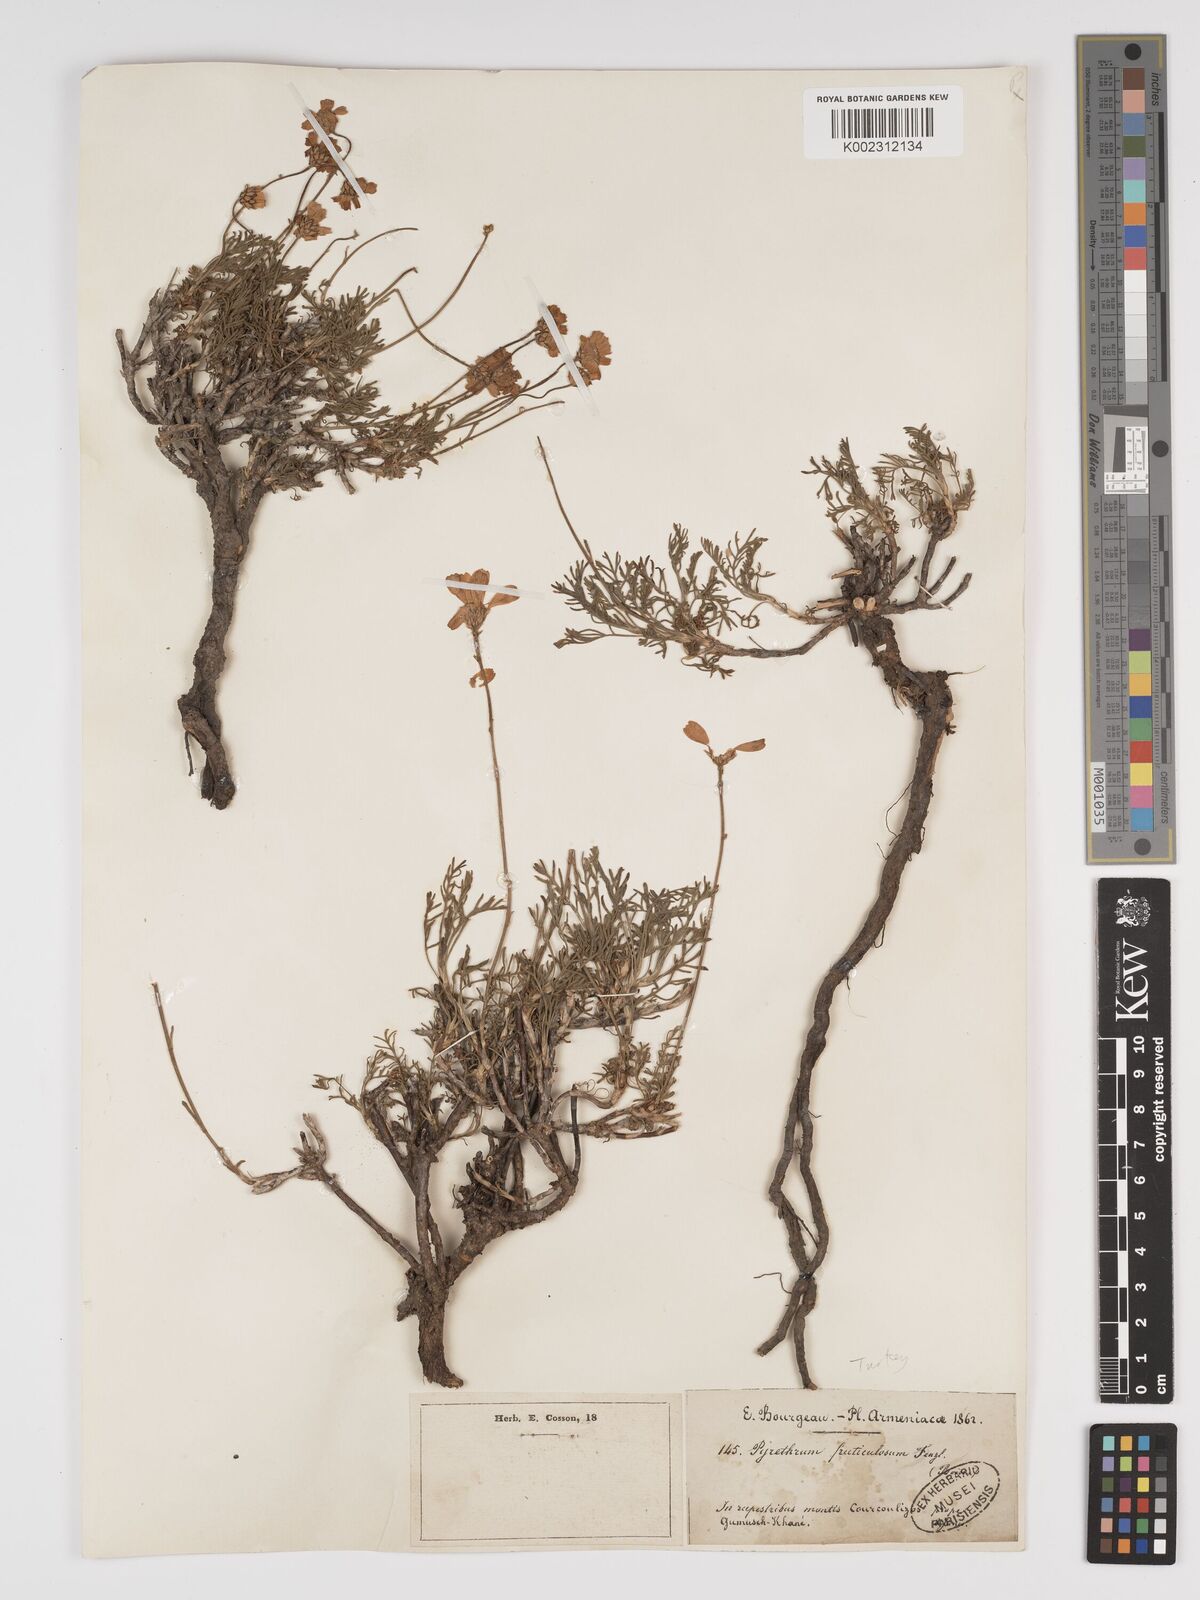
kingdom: Plantae
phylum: Tracheophyta
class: Magnoliopsida
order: Asterales
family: Asteraceae
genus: Ajania
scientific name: Ajania fruticulosa
